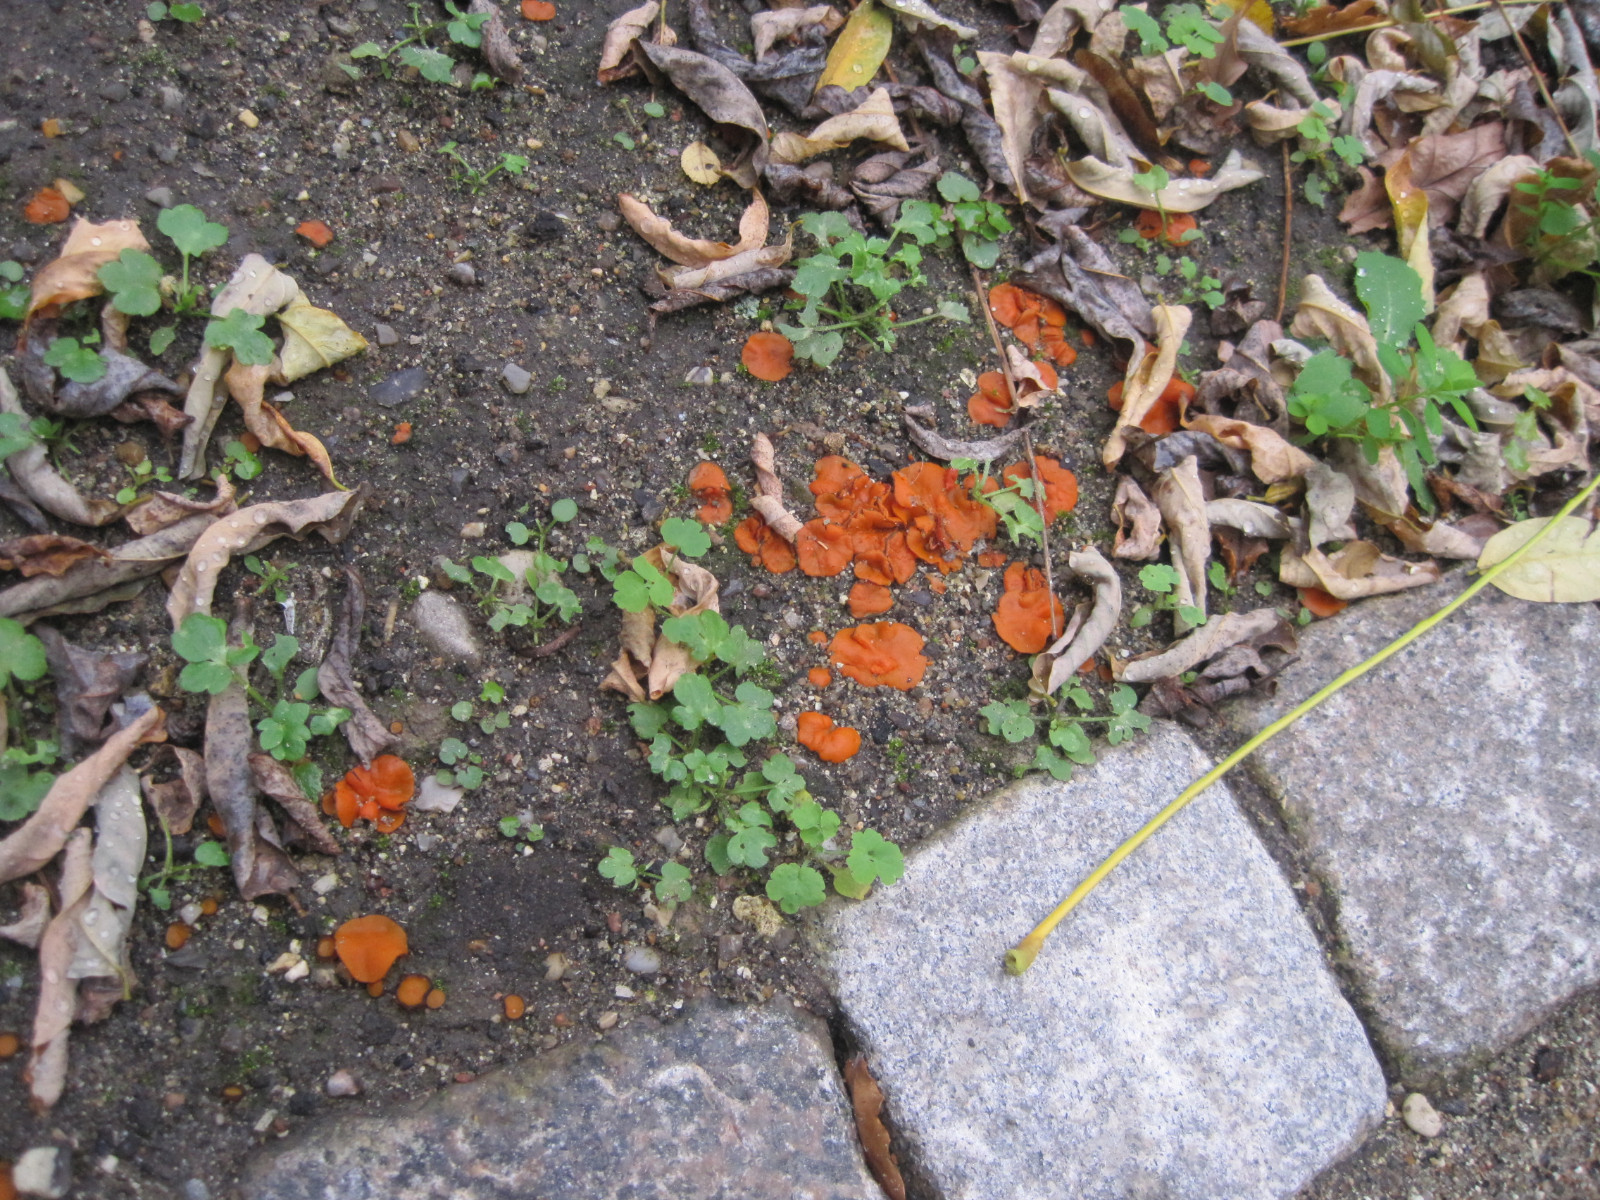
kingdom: Fungi
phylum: Ascomycota
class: Pezizomycetes
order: Pezizales
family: Pyronemataceae
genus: Melastiza
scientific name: Melastiza cornubiensis
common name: mørkrandet rødbæger
